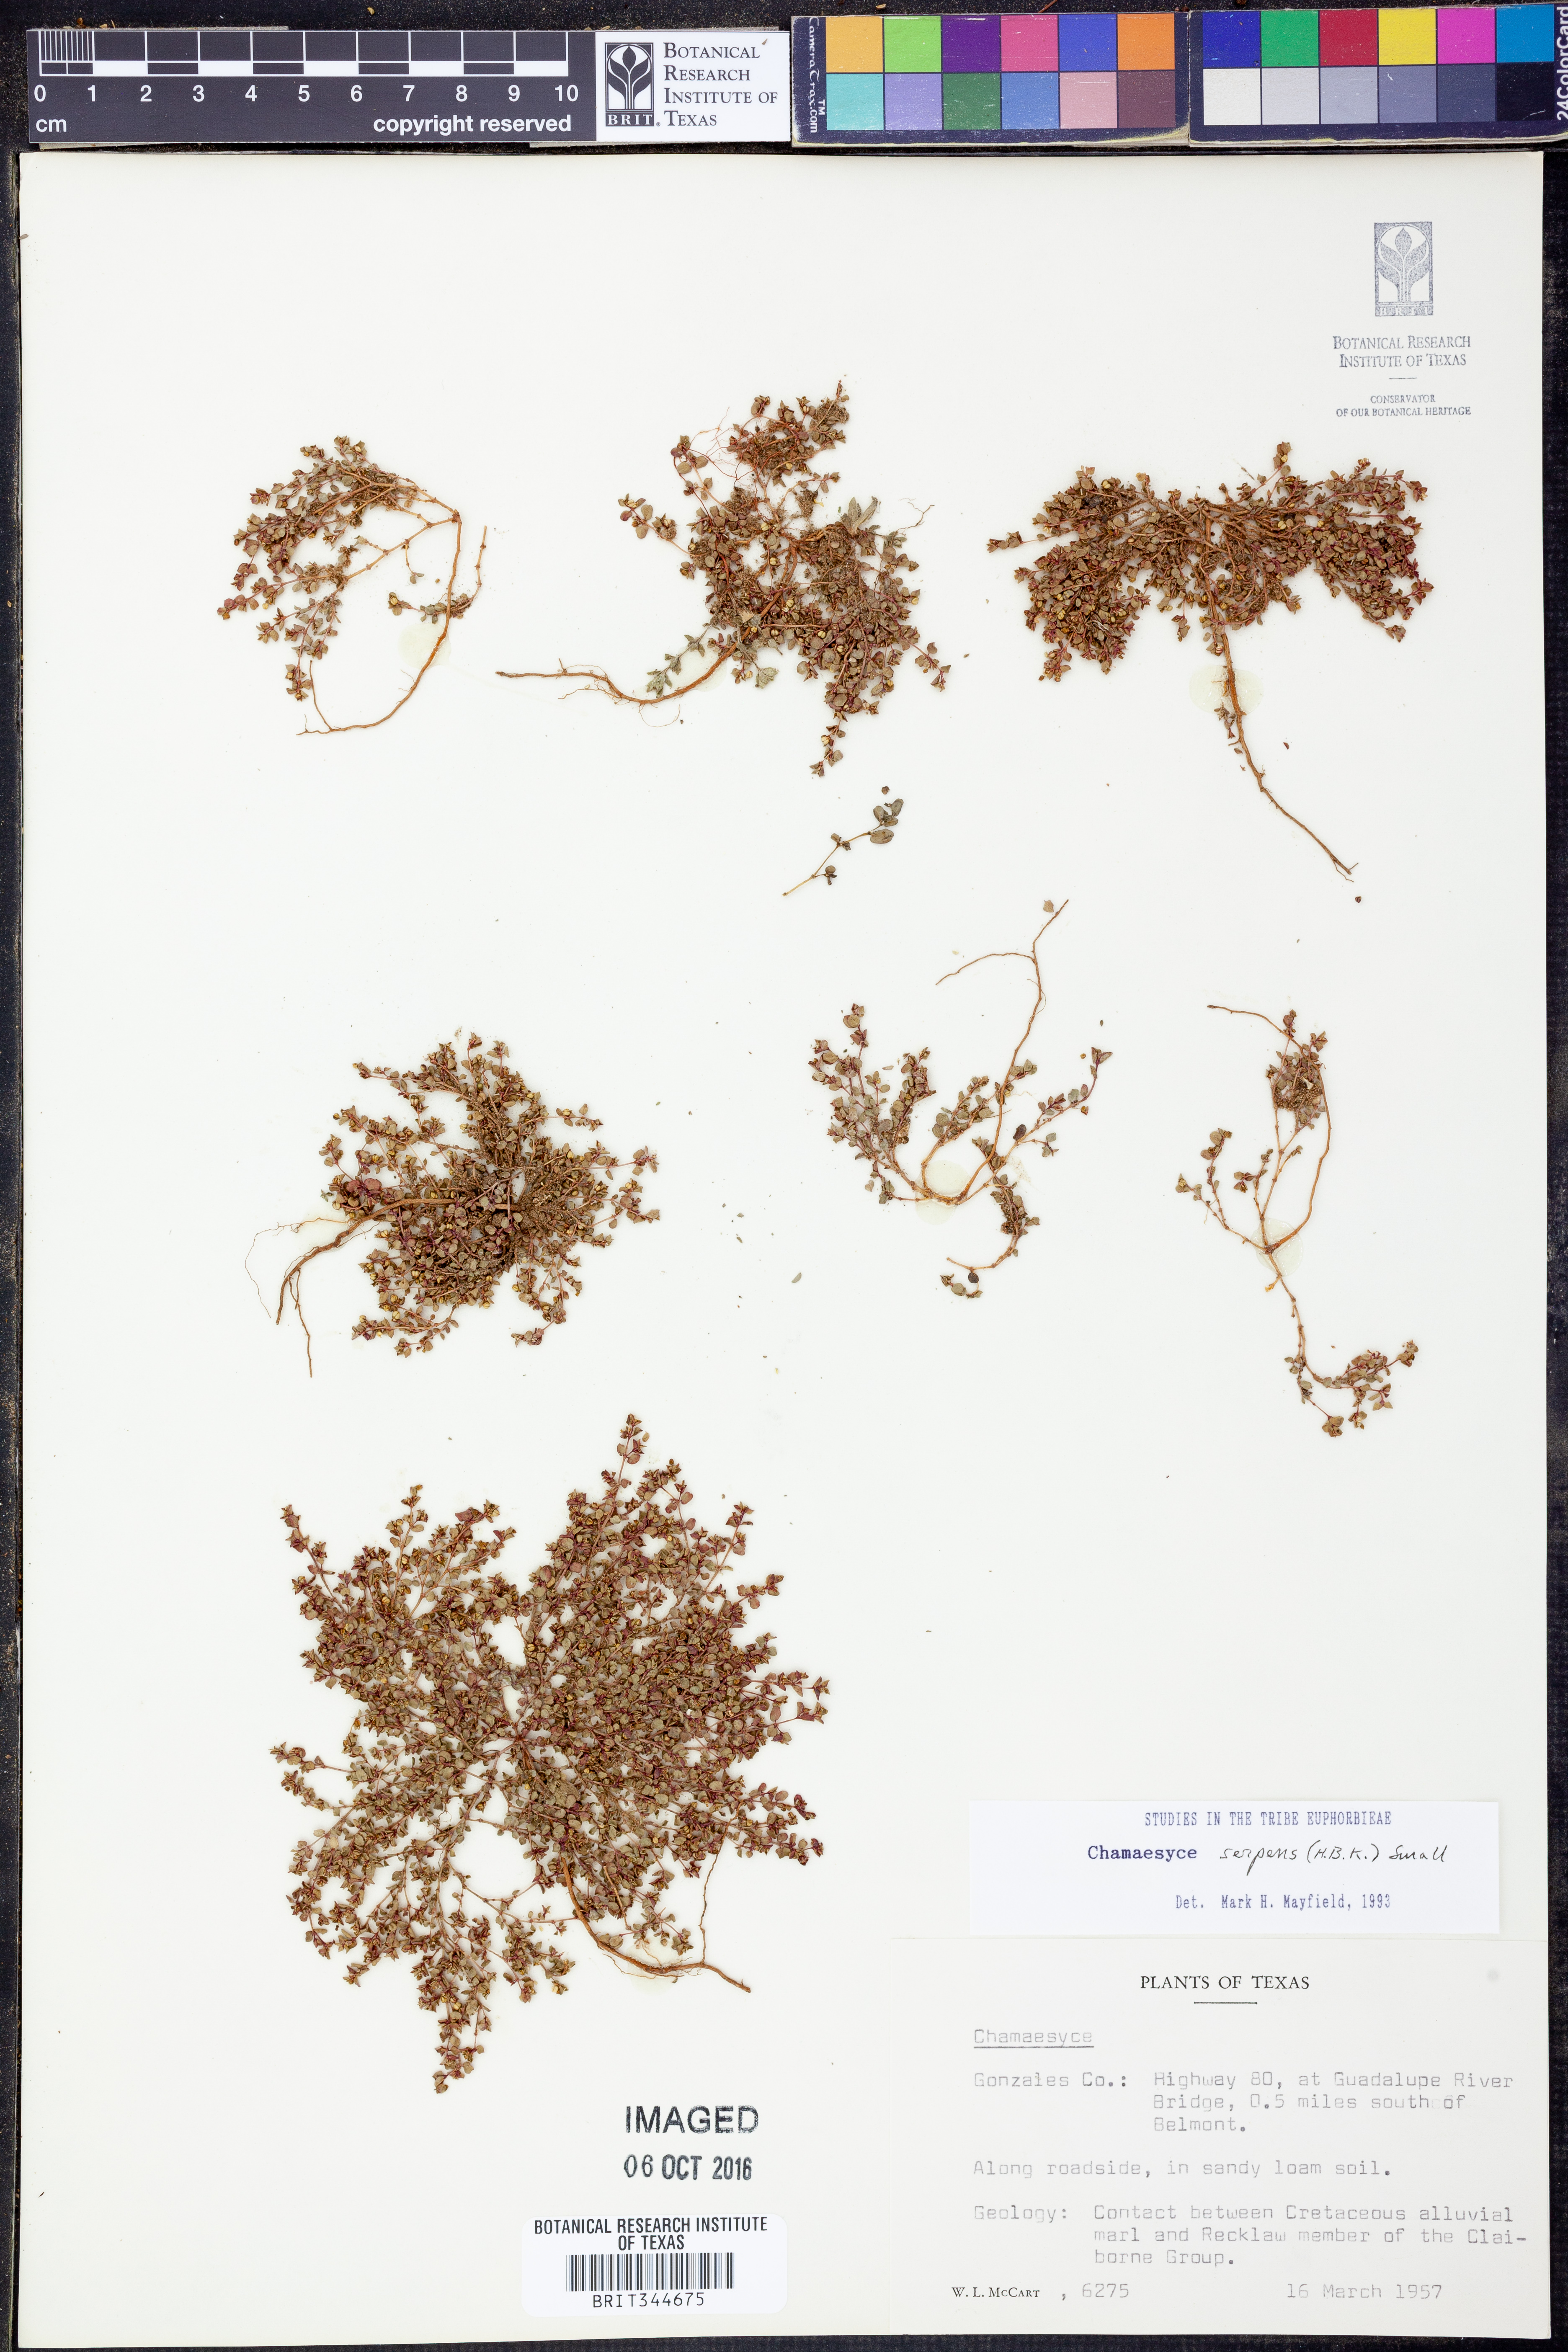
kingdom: Plantae
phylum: Tracheophyta
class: Magnoliopsida
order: Malpighiales
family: Euphorbiaceae
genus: Euphorbia
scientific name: Euphorbia serpens
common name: Matted sandmat
